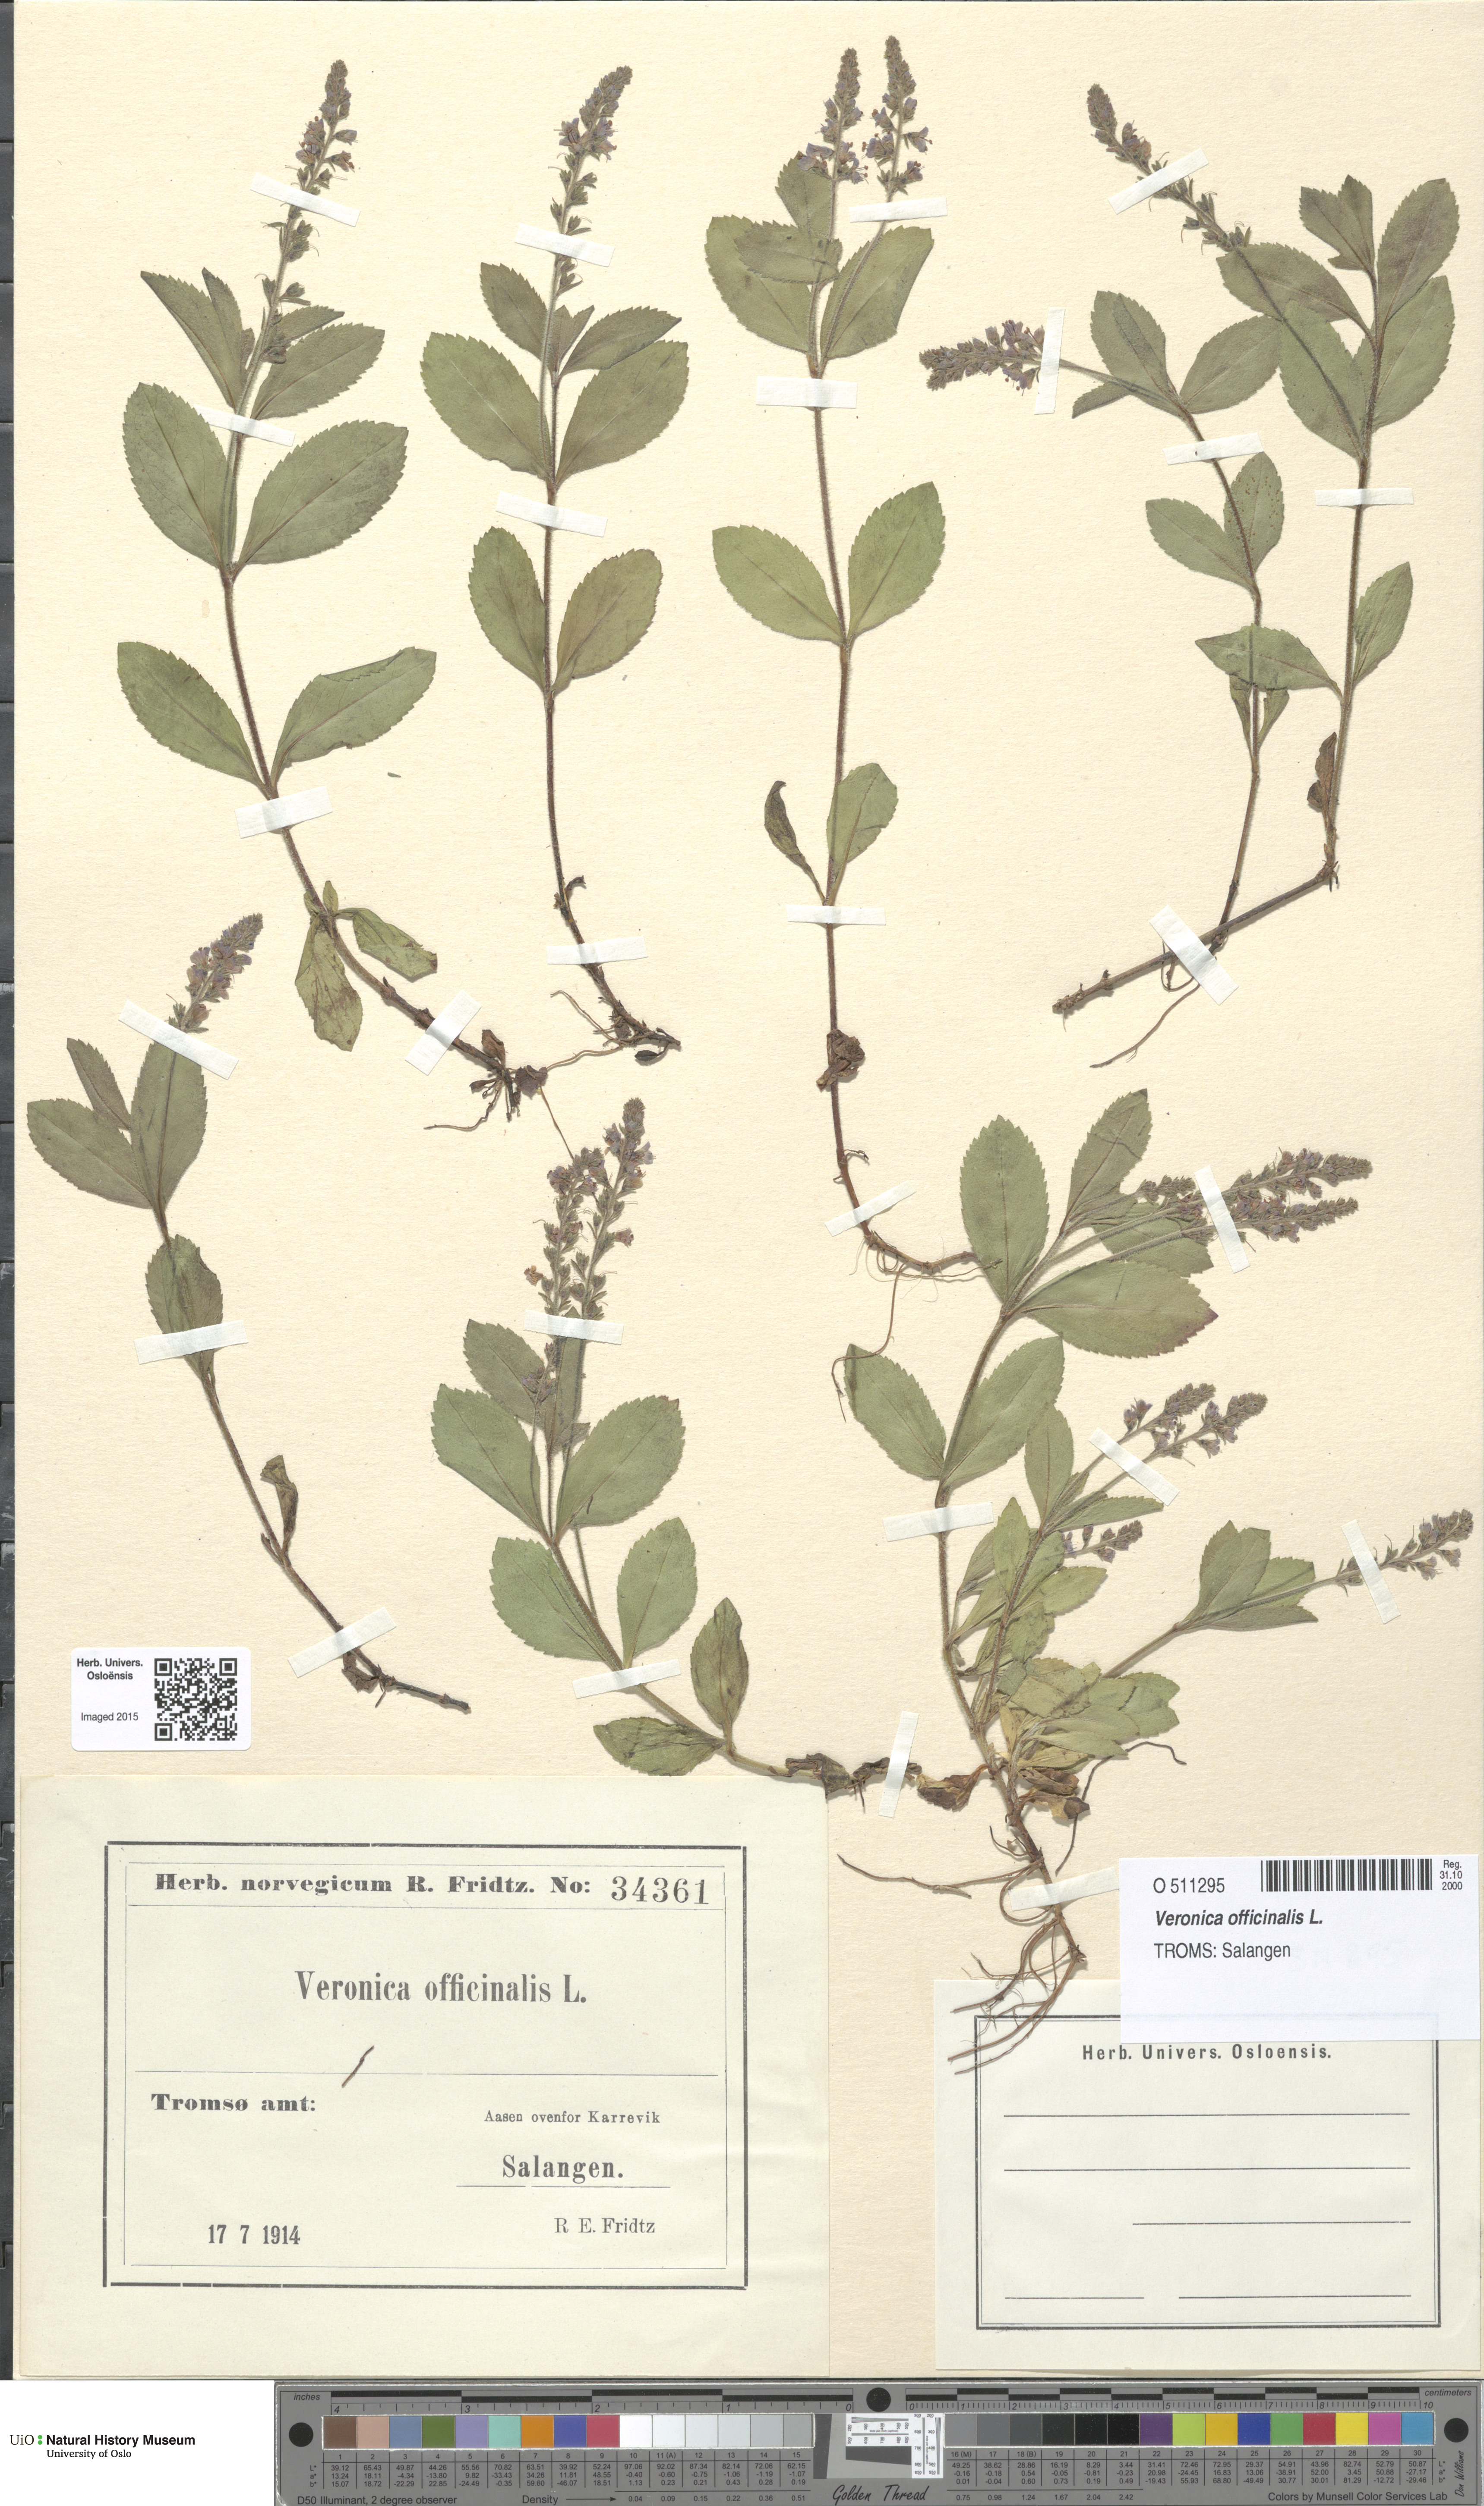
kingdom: Plantae
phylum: Tracheophyta
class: Magnoliopsida
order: Lamiales
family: Plantaginaceae
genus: Veronica
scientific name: Veronica officinalis
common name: Common speedwell
